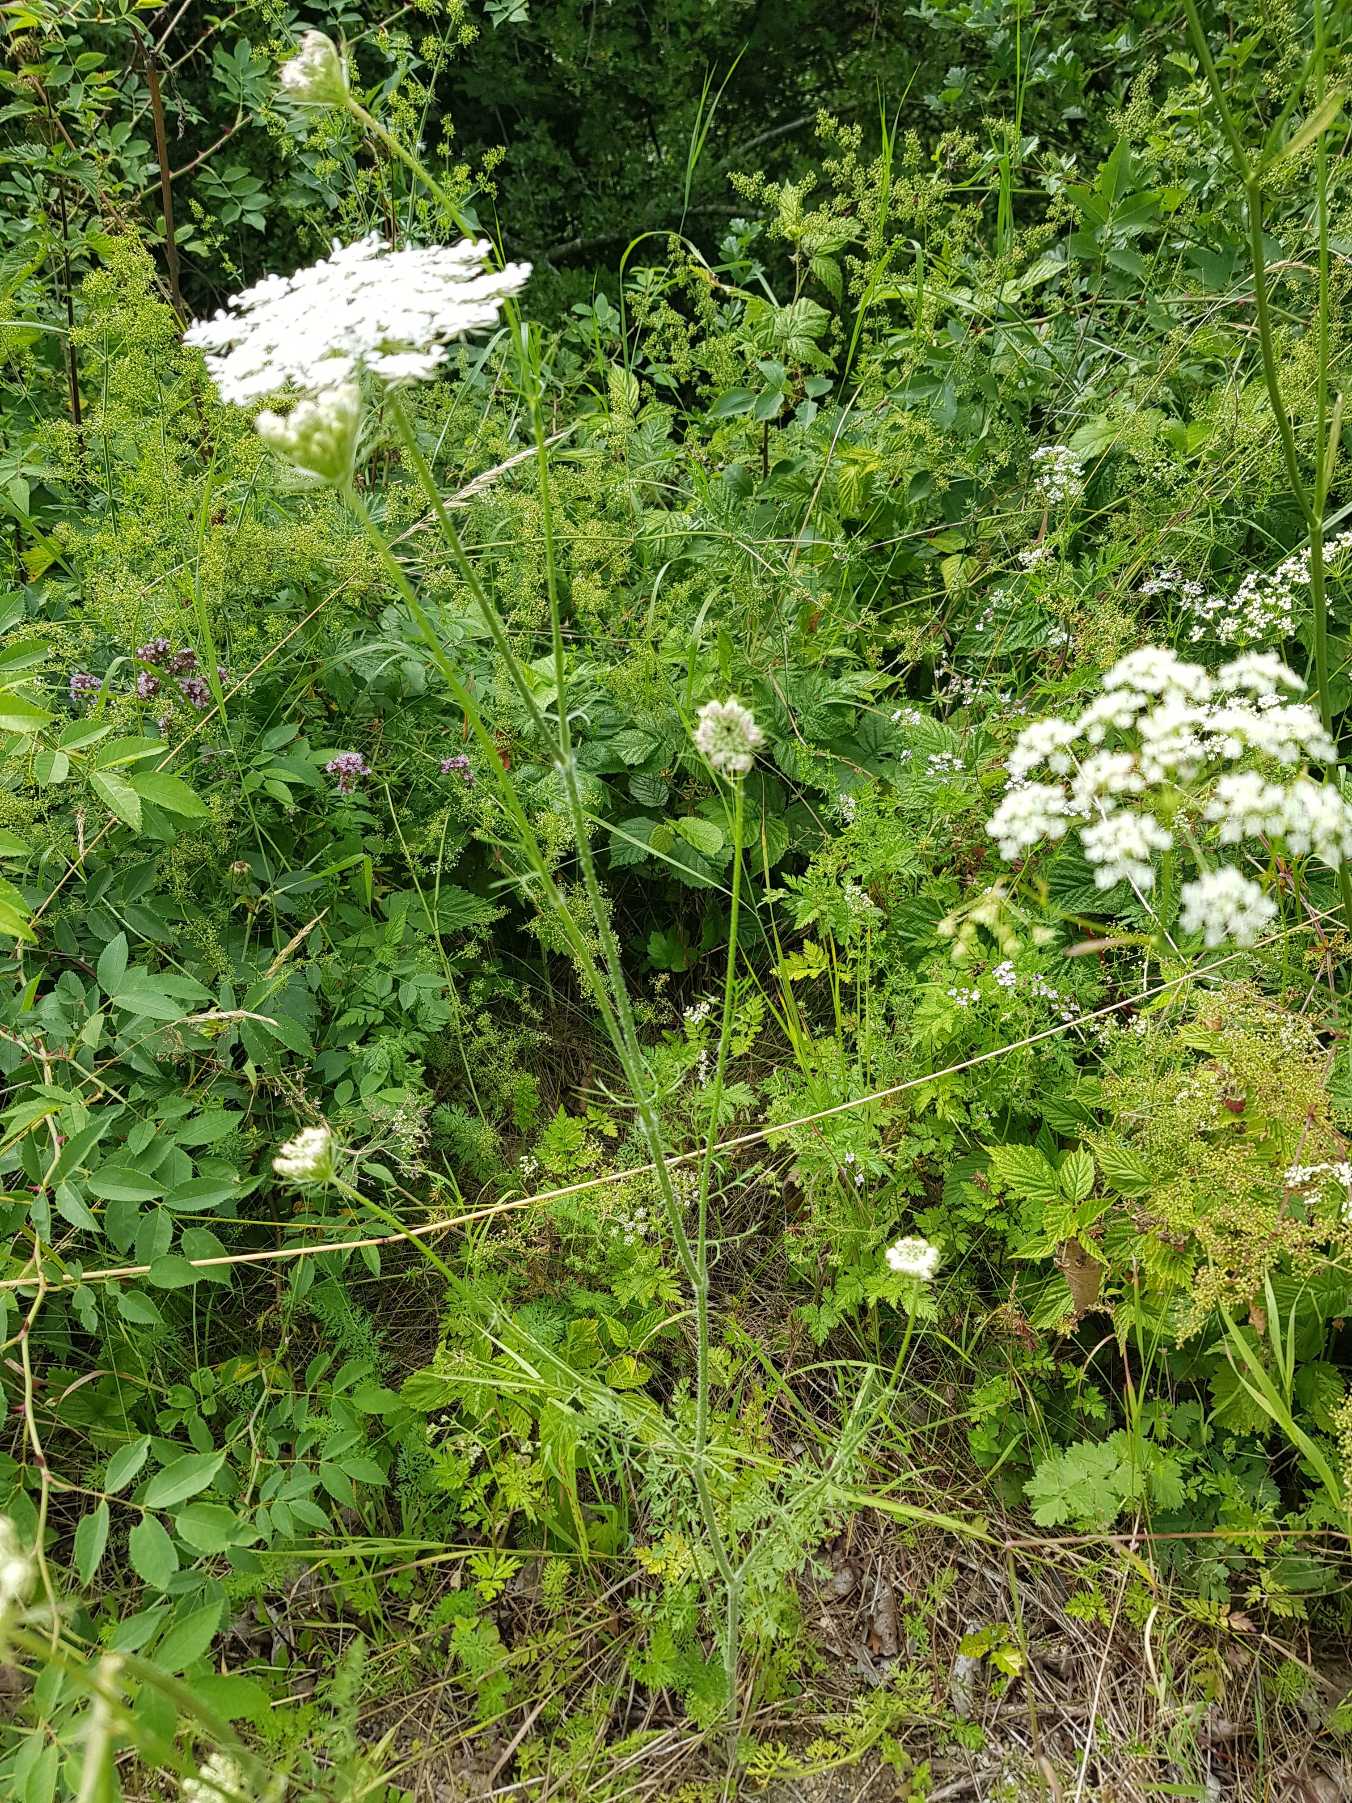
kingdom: Plantae
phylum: Tracheophyta
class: Magnoliopsida
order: Apiales
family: Apiaceae
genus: Daucus
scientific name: Daucus carota
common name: Vild gulerod
